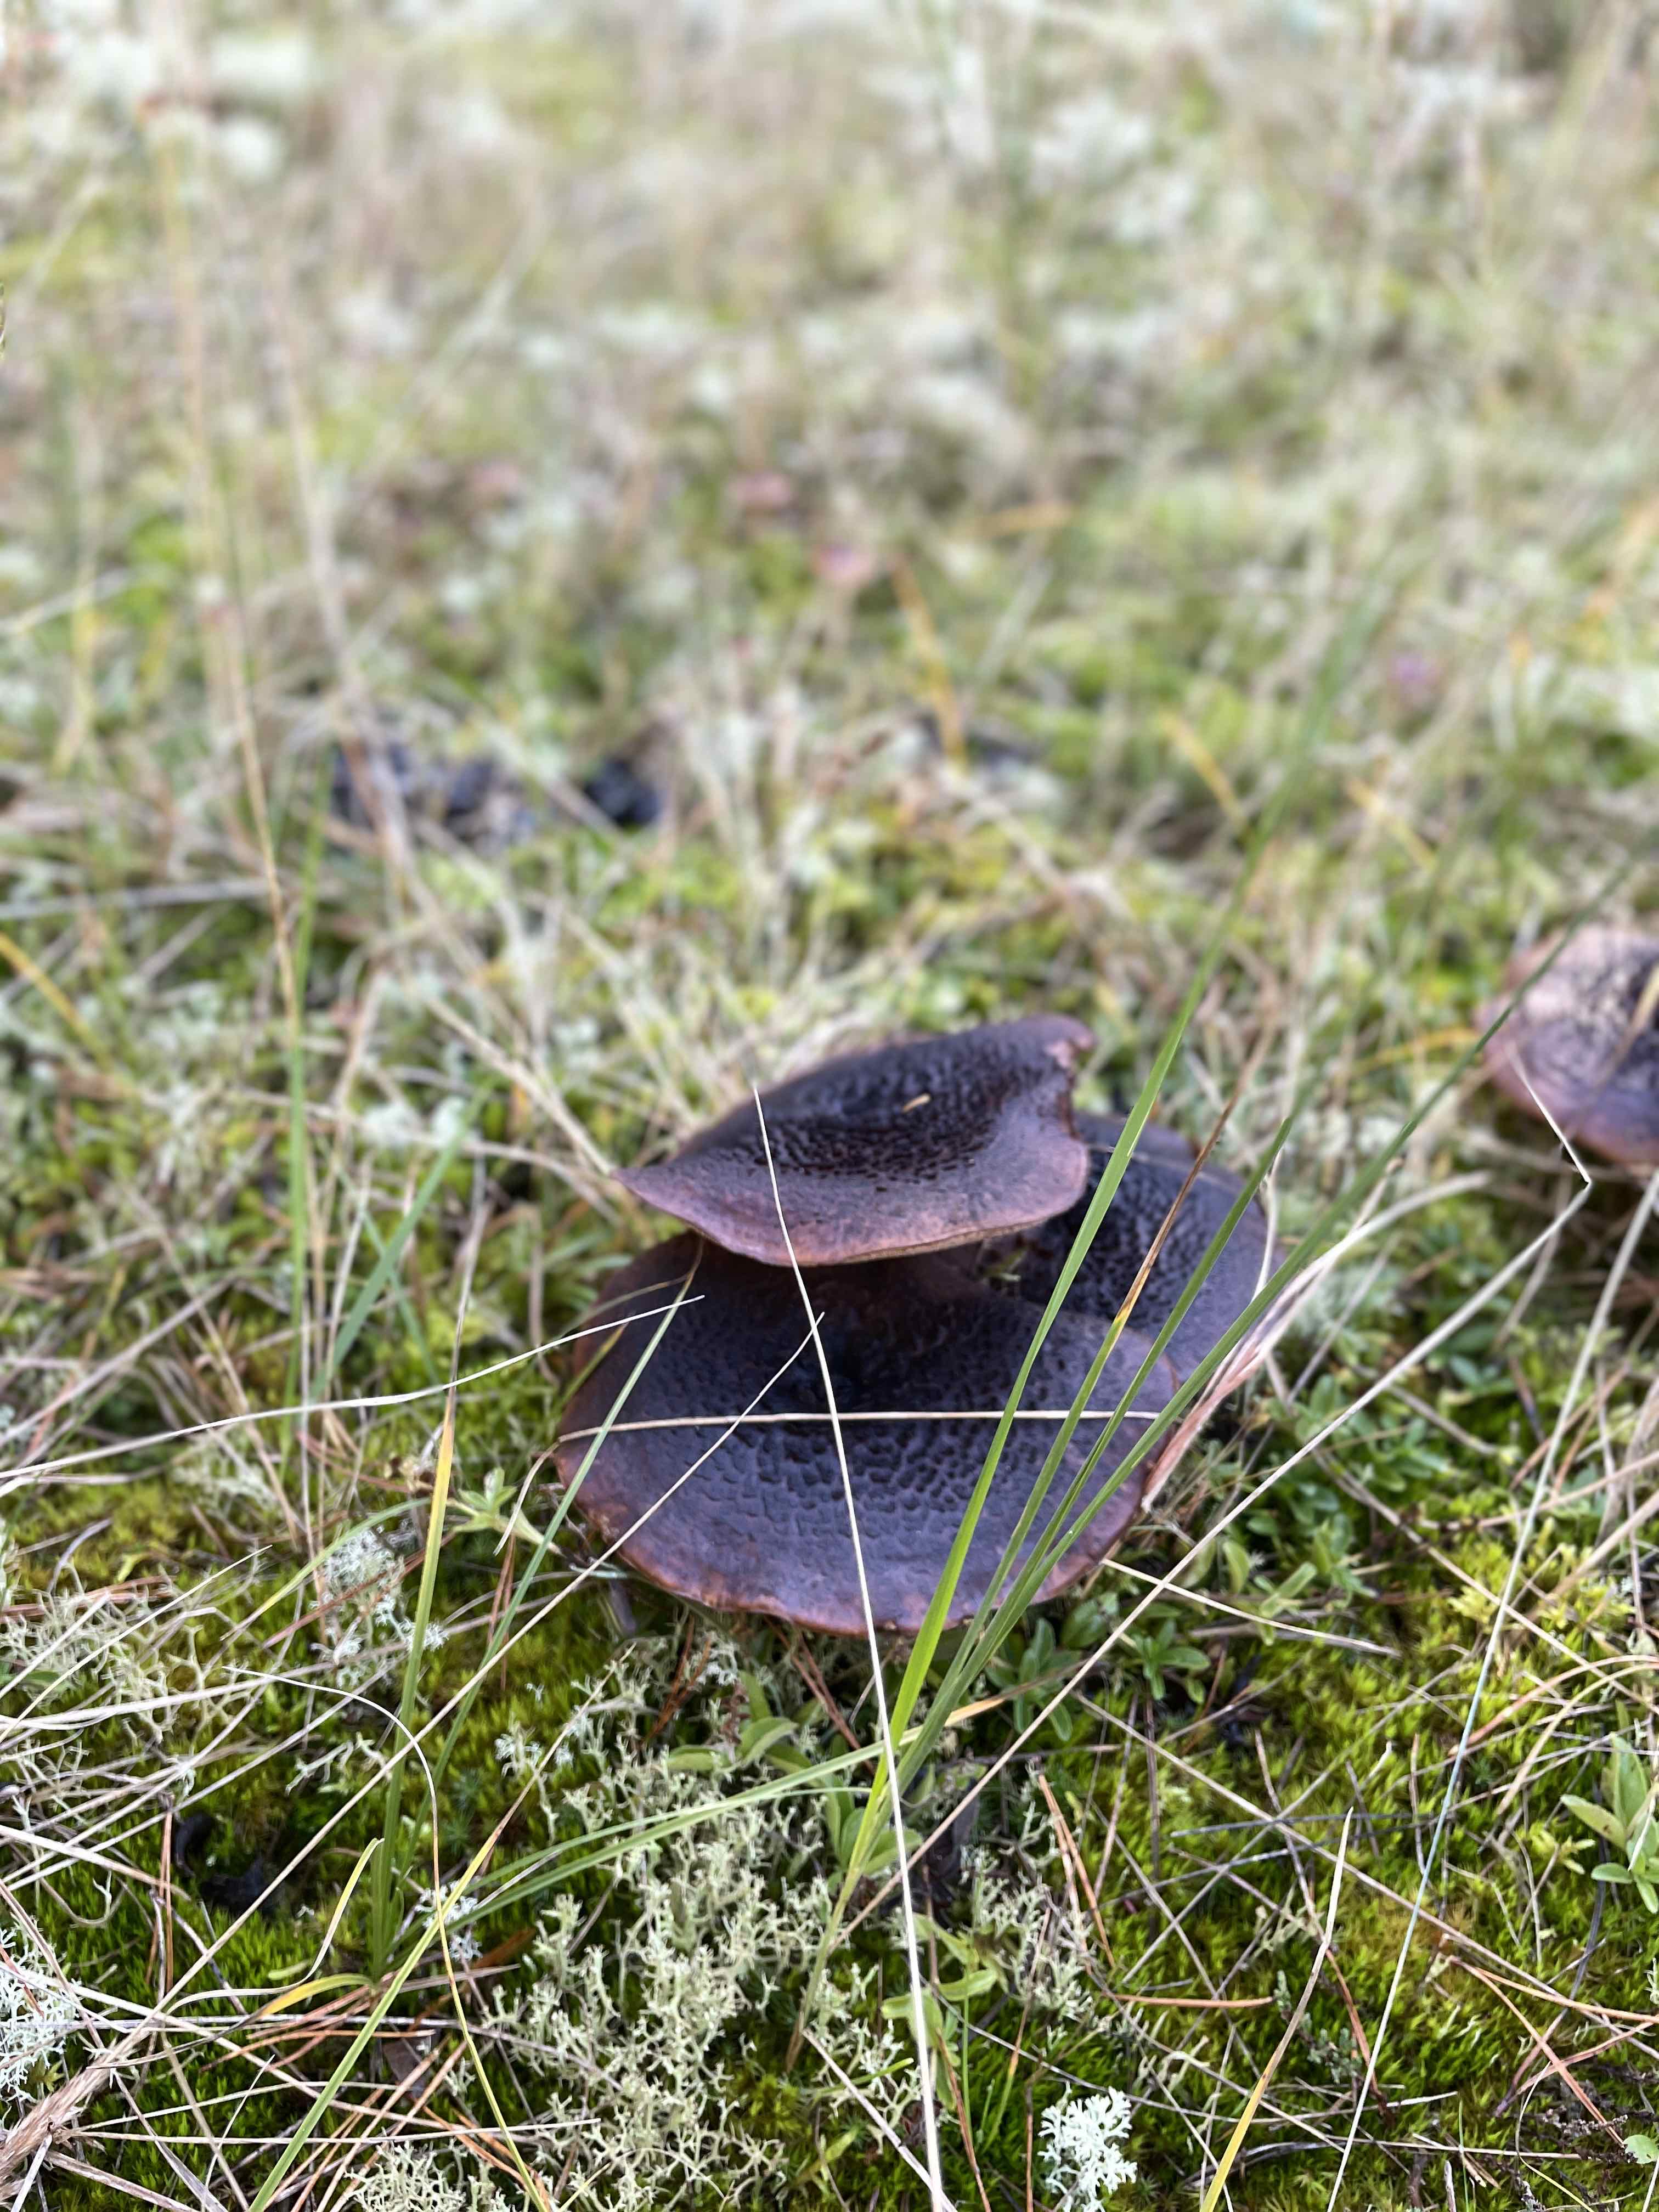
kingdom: Fungi
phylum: Basidiomycota
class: Agaricomycetes
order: Thelephorales
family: Bankeraceae
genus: Sarcodon
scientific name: Sarcodon squamosus
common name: småskællet kødpigsvamp
